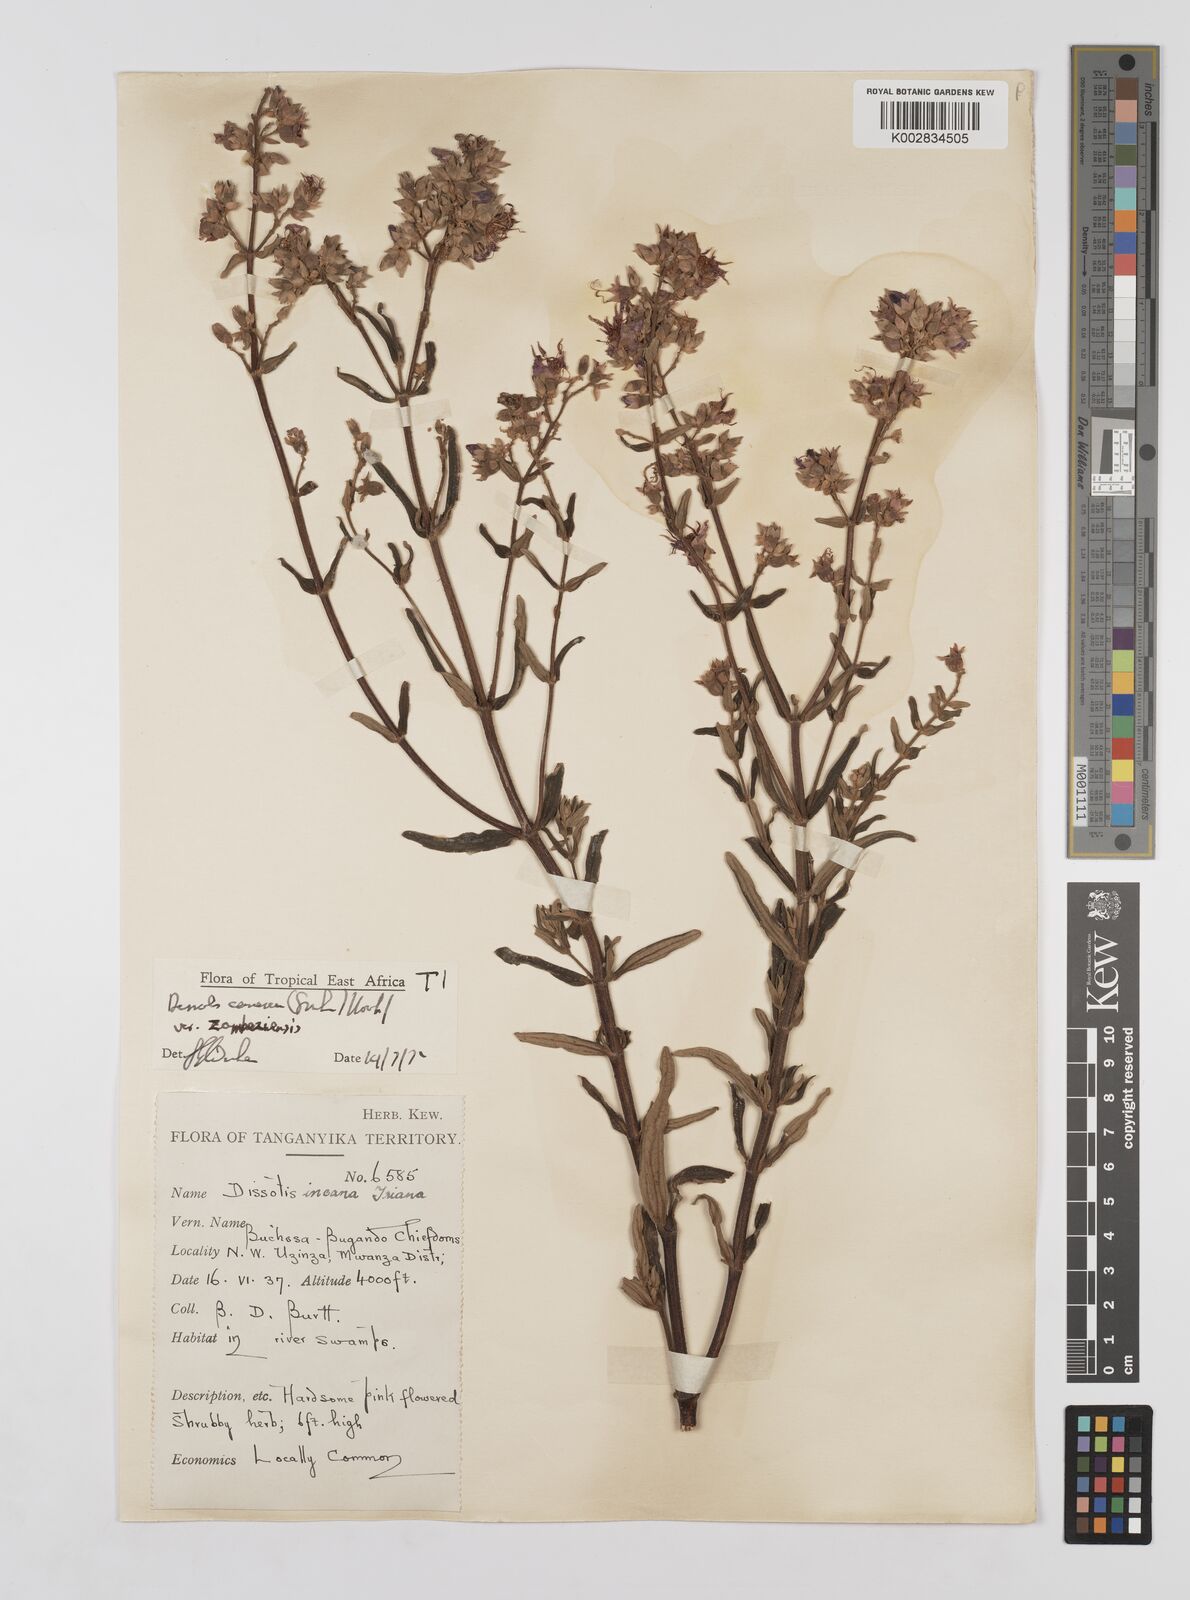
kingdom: Plantae
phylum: Tracheophyta
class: Magnoliopsida
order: Myrtales
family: Melastomataceae
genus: Argyrella
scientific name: Argyrella canescens
